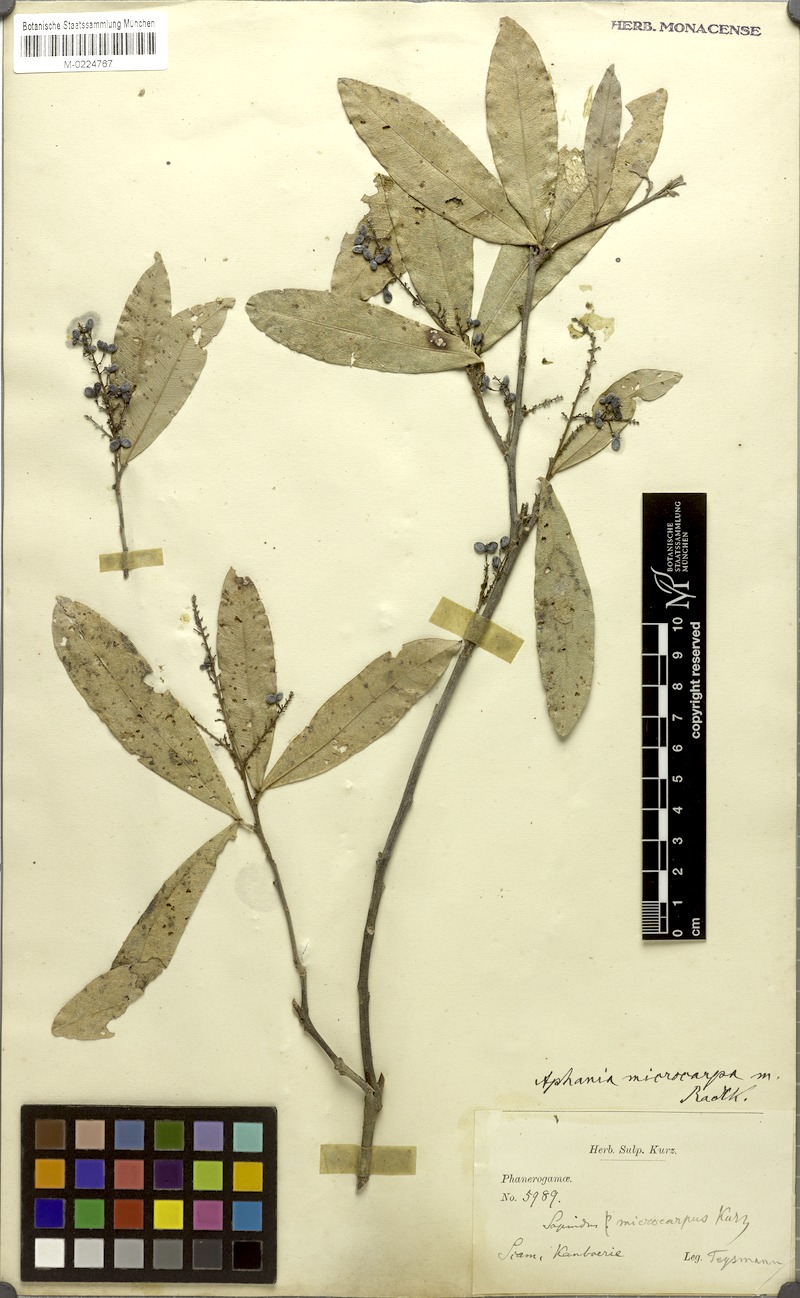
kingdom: Plantae
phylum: Tracheophyta
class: Magnoliopsida
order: Sapindales
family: Sapindaceae
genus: Lepisanthes
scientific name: Lepisanthes senegalensis
